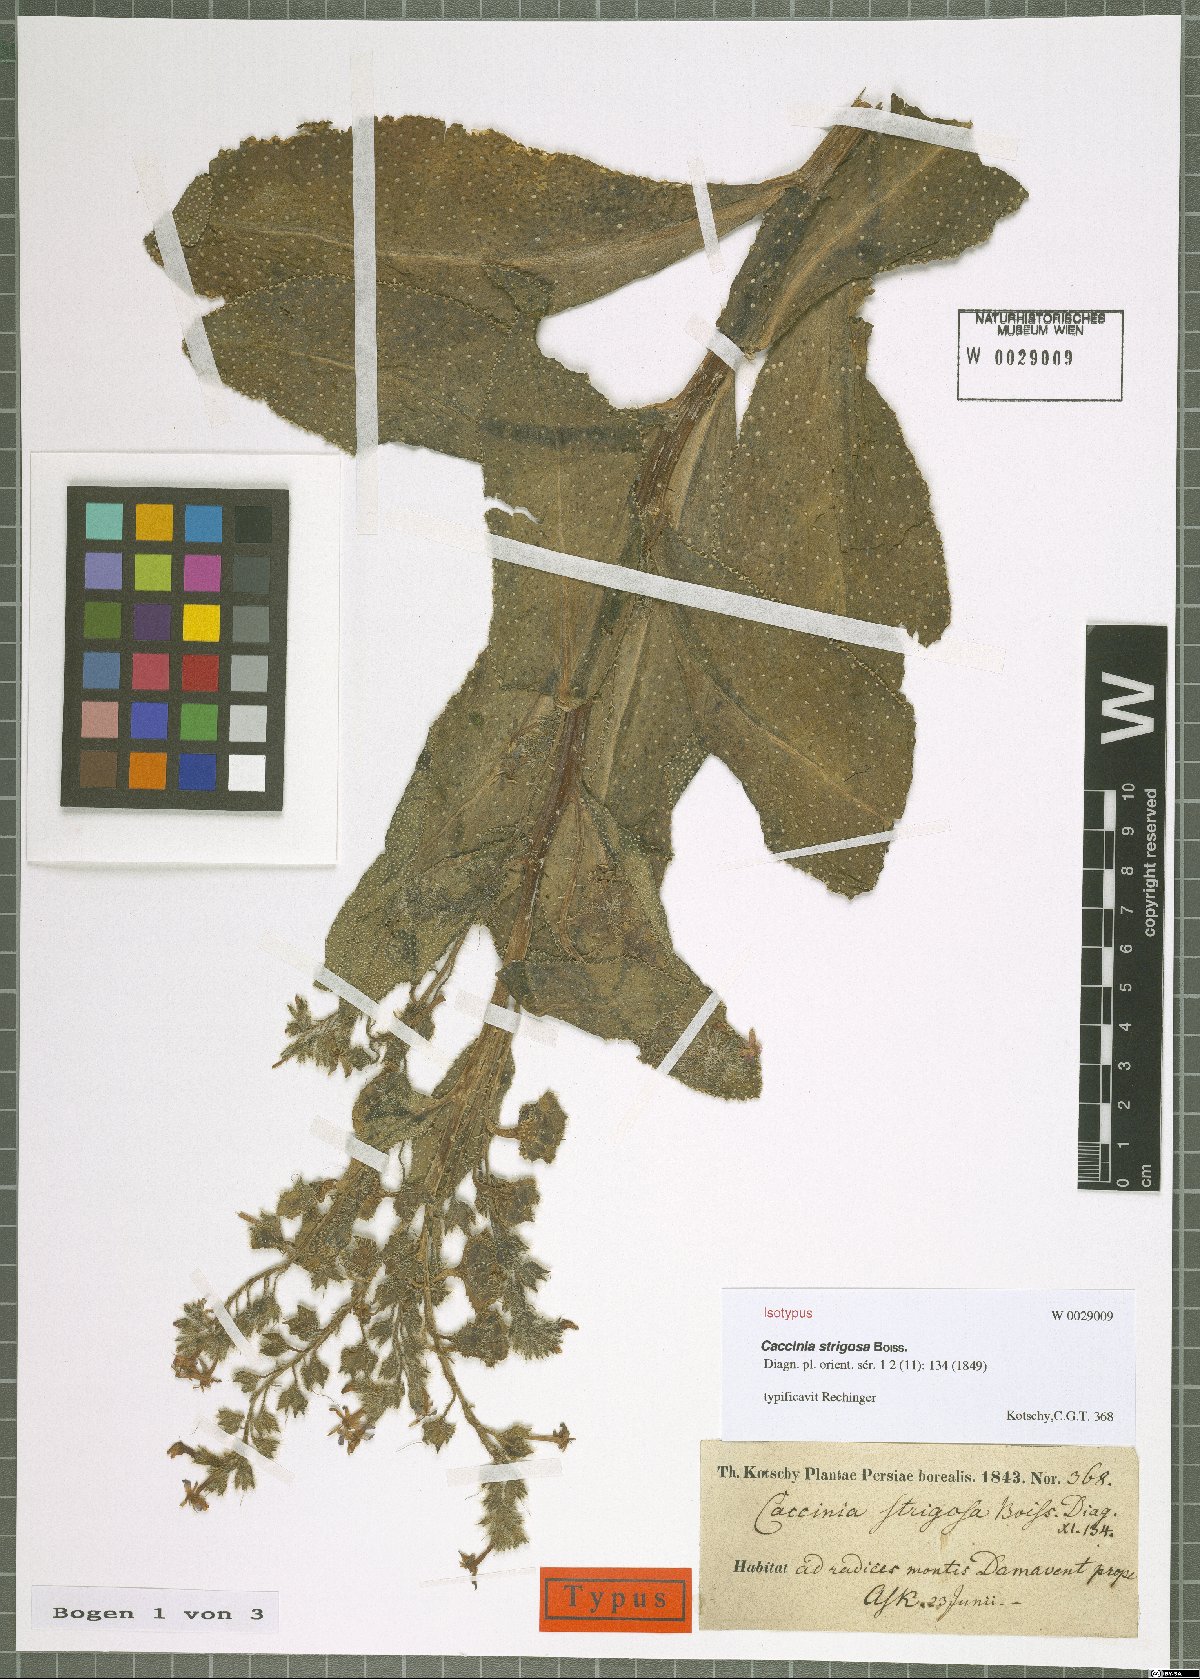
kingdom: Plantae
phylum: Tracheophyta
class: Magnoliopsida
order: Boraginales
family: Boraginaceae
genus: Caccinia
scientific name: Caccinia strigosa
